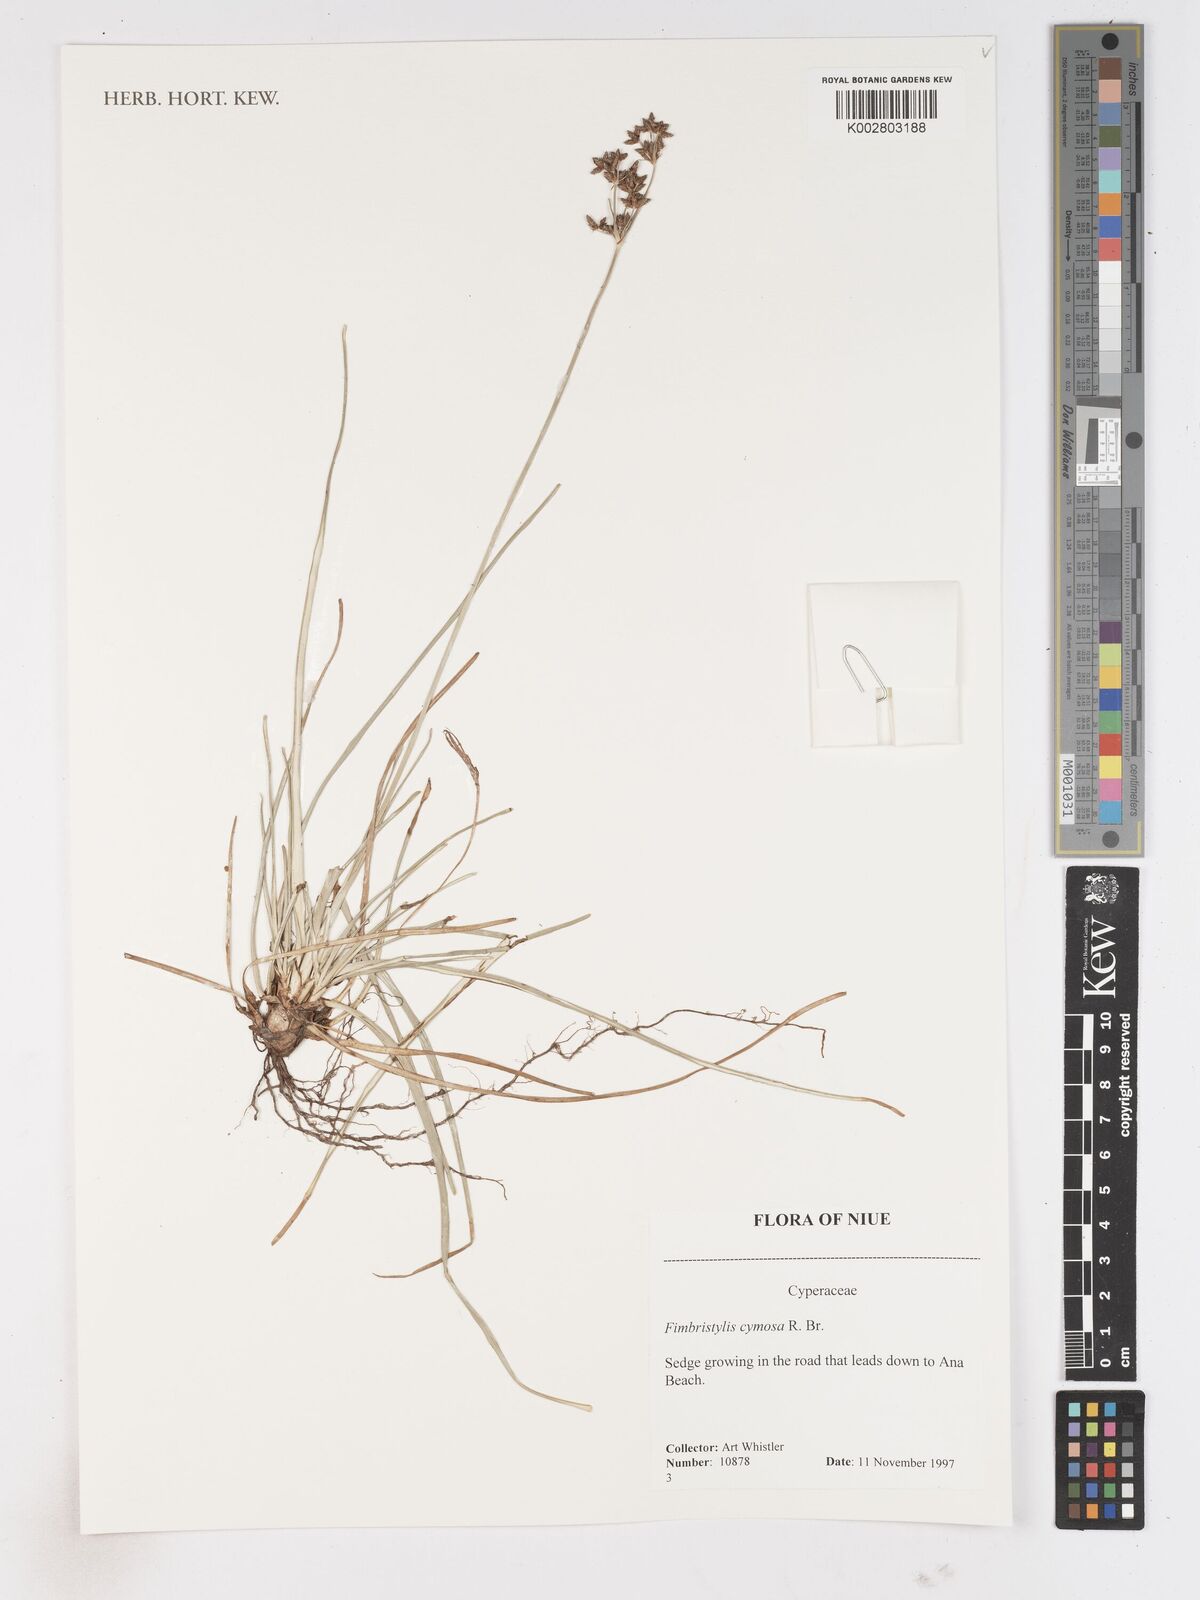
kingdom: Plantae
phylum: Tracheophyta
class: Liliopsida
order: Poales
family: Cyperaceae
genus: Fimbristylis
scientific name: Fimbristylis cymosa
